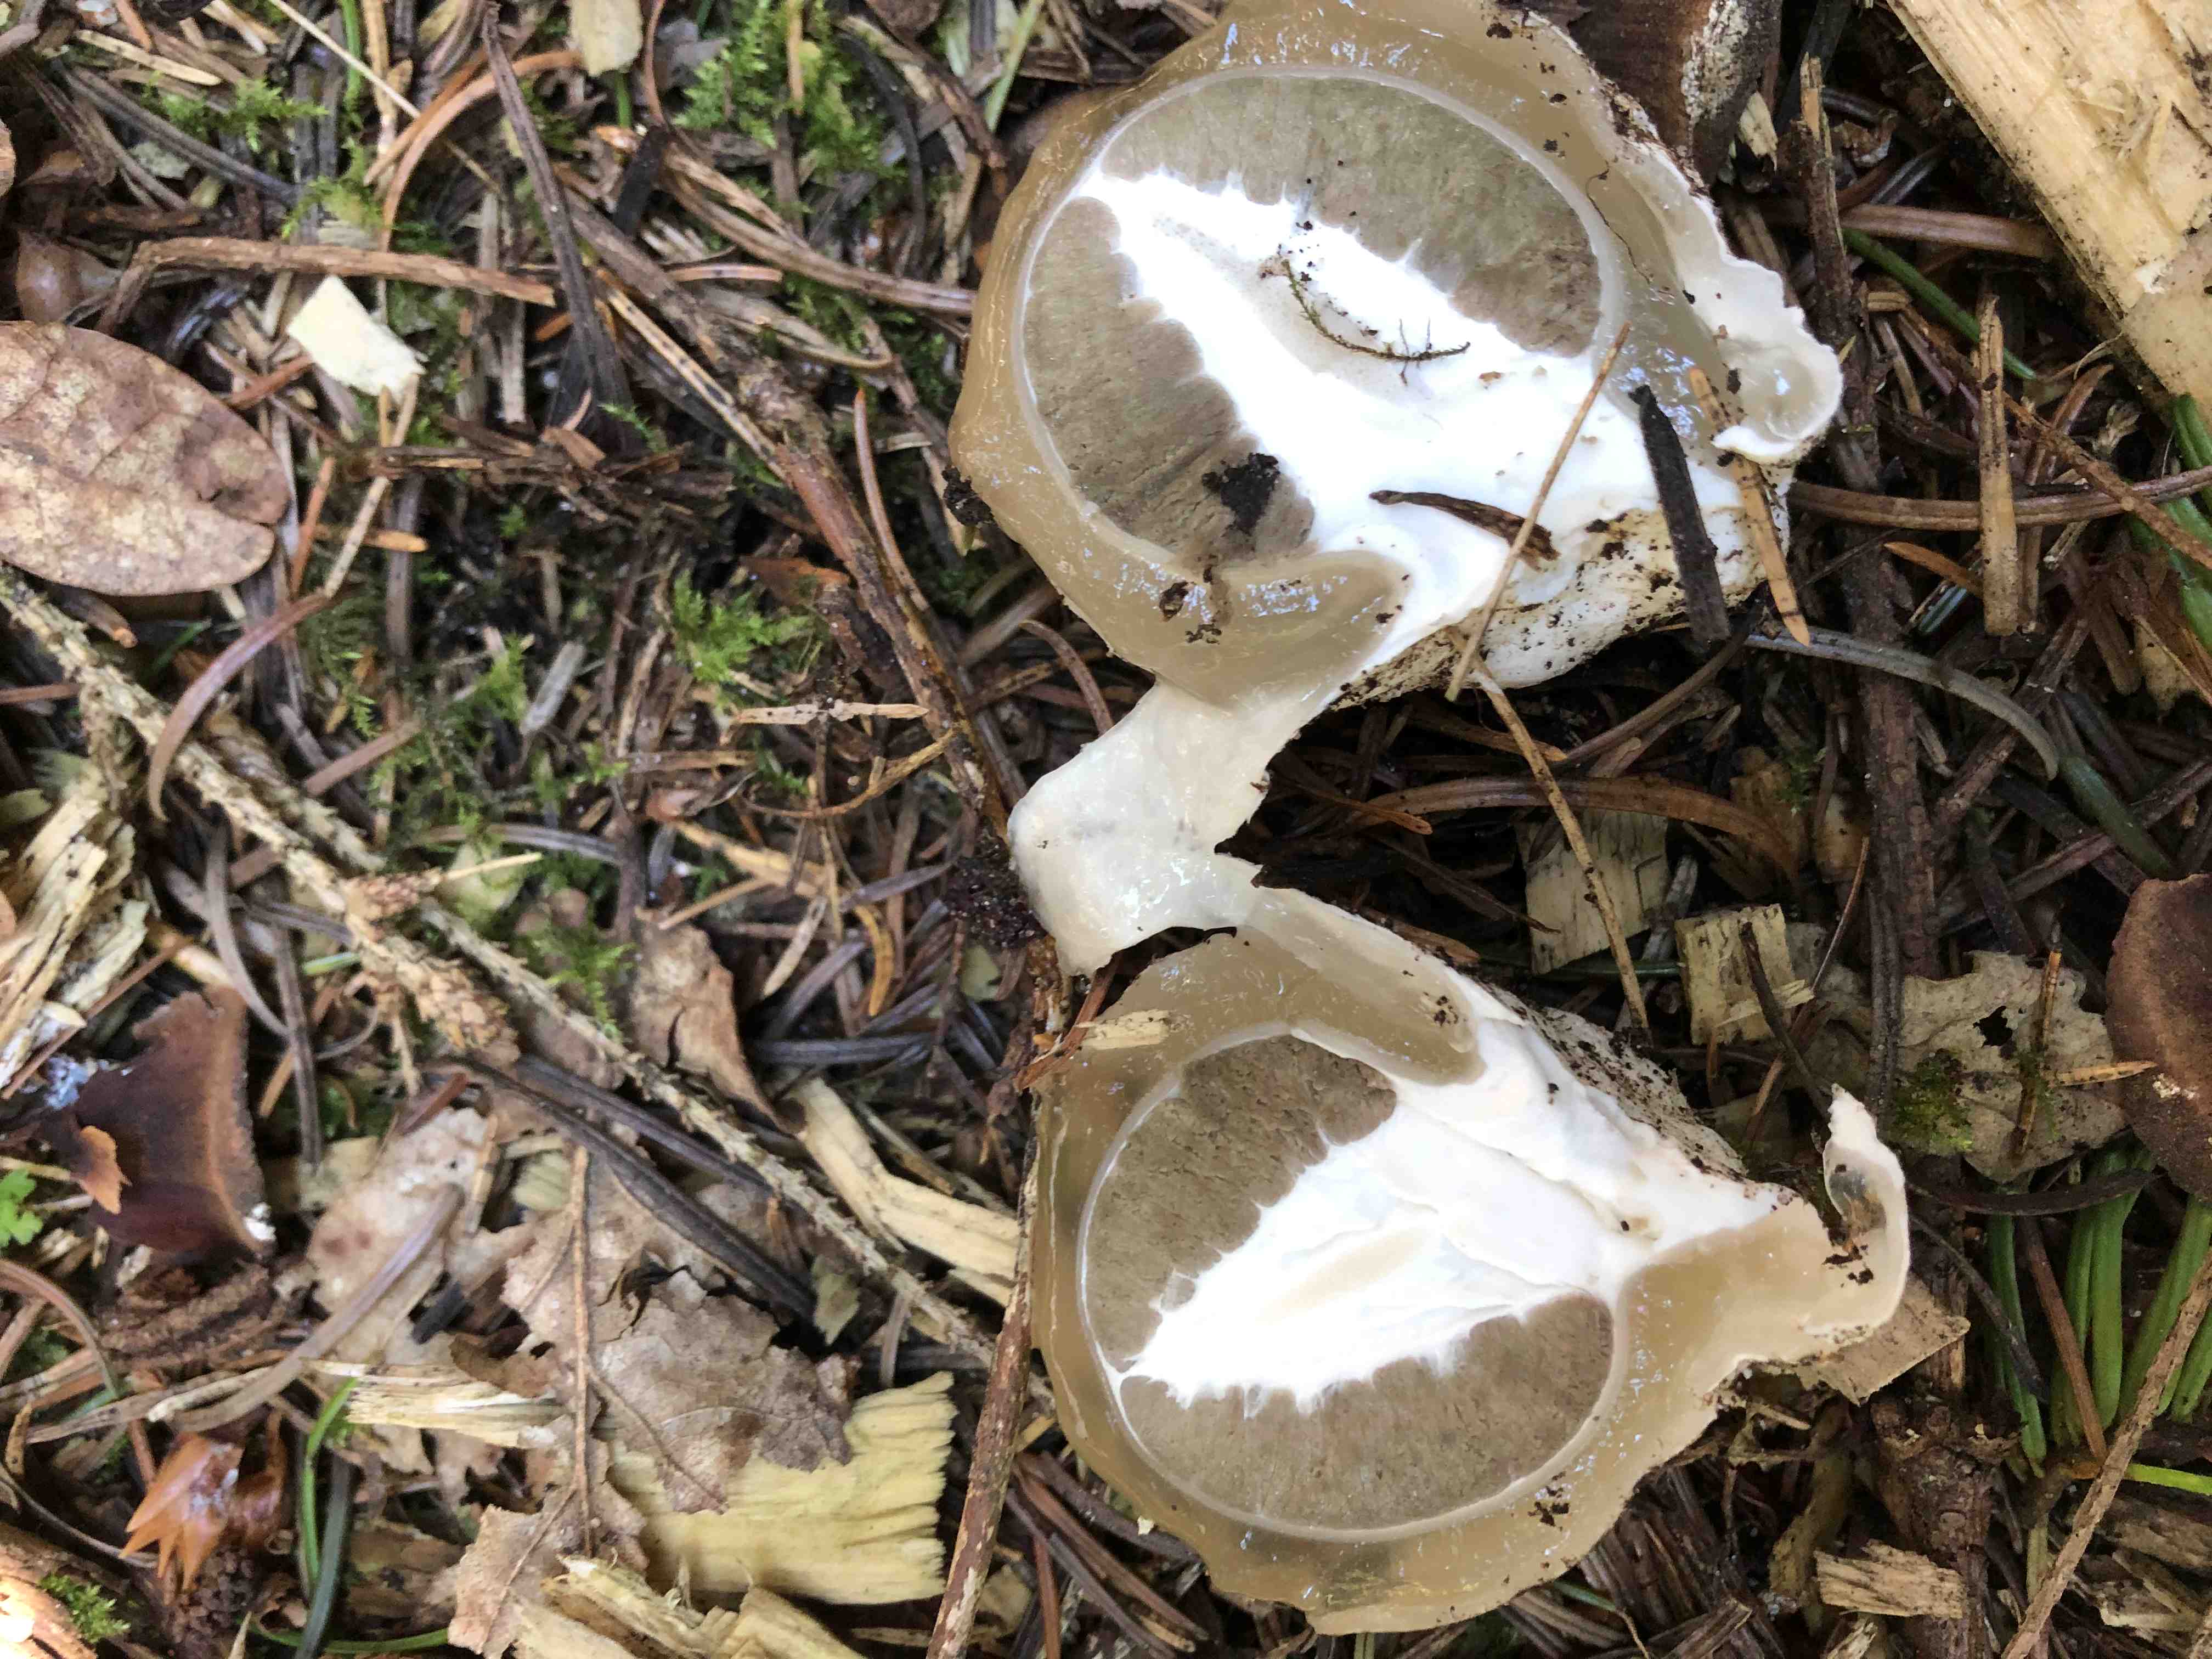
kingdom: Fungi
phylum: Basidiomycota
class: Agaricomycetes
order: Phallales
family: Phallaceae
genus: Phallus
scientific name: Phallus impudicus
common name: almindelig stinksvamp
